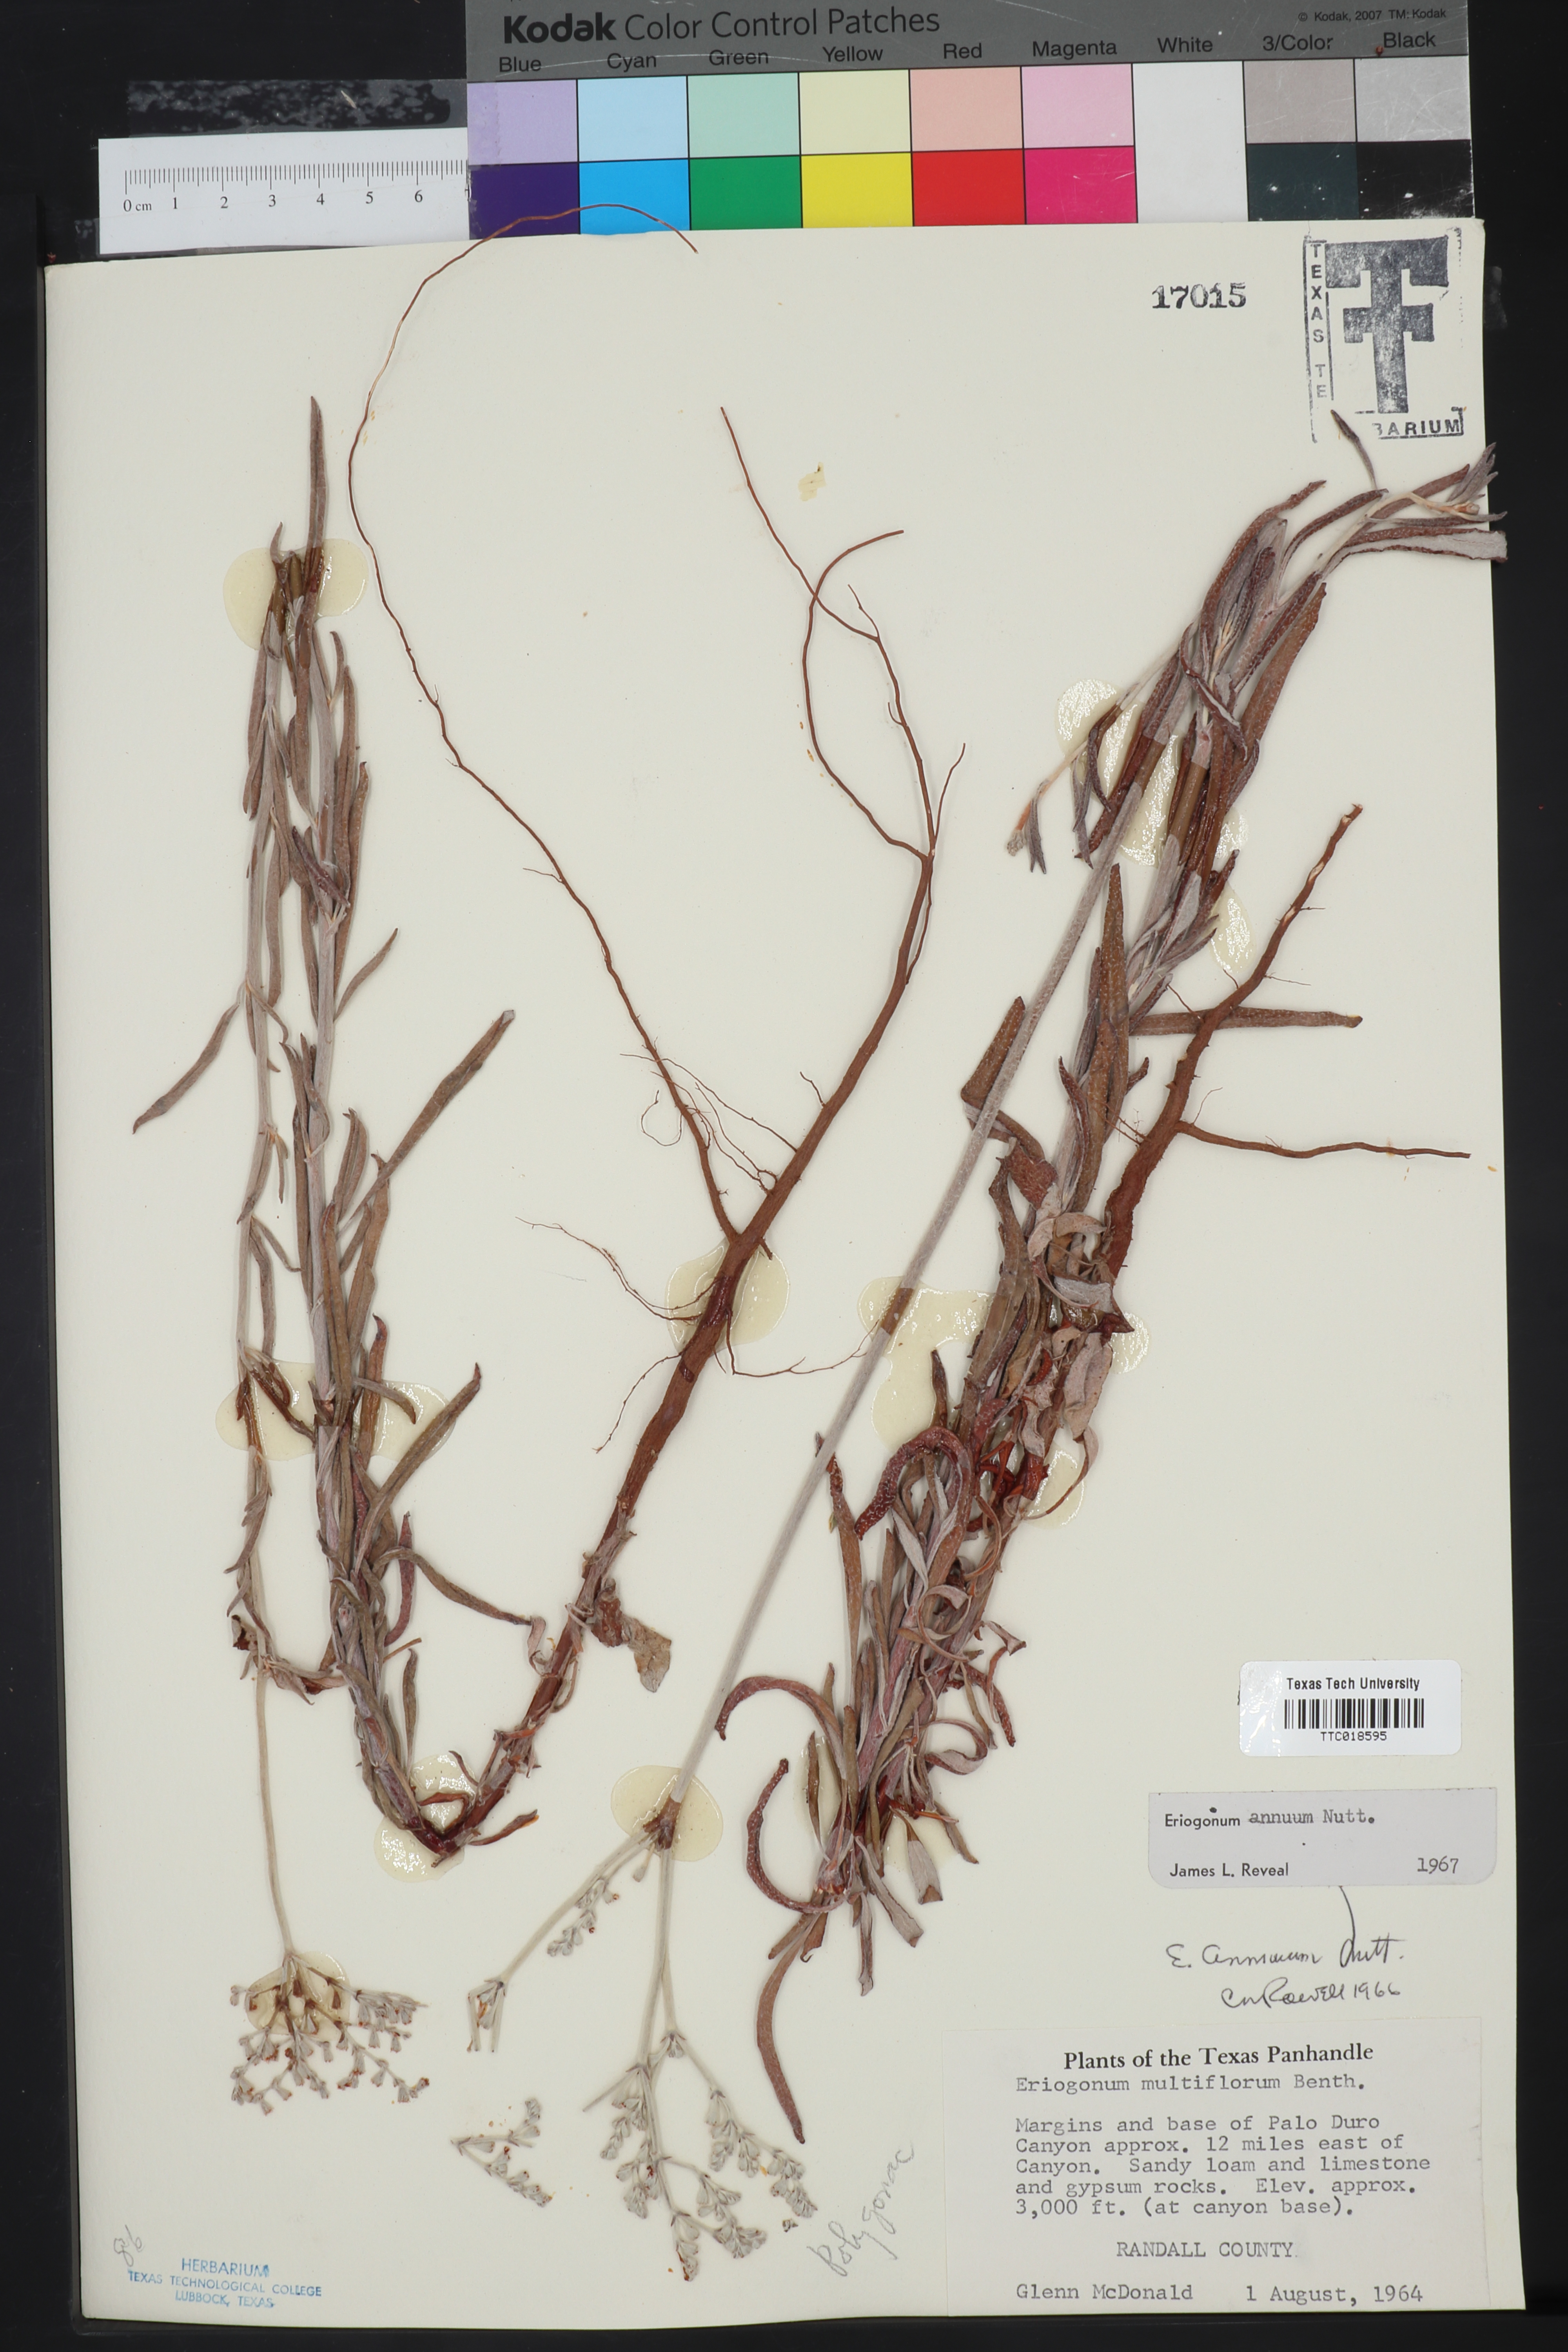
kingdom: Plantae
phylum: Tracheophyta
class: Magnoliopsida
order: Caryophyllales
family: Polygonaceae
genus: Eriogonum
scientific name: Eriogonum annuum
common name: Annual wild buckwheat
